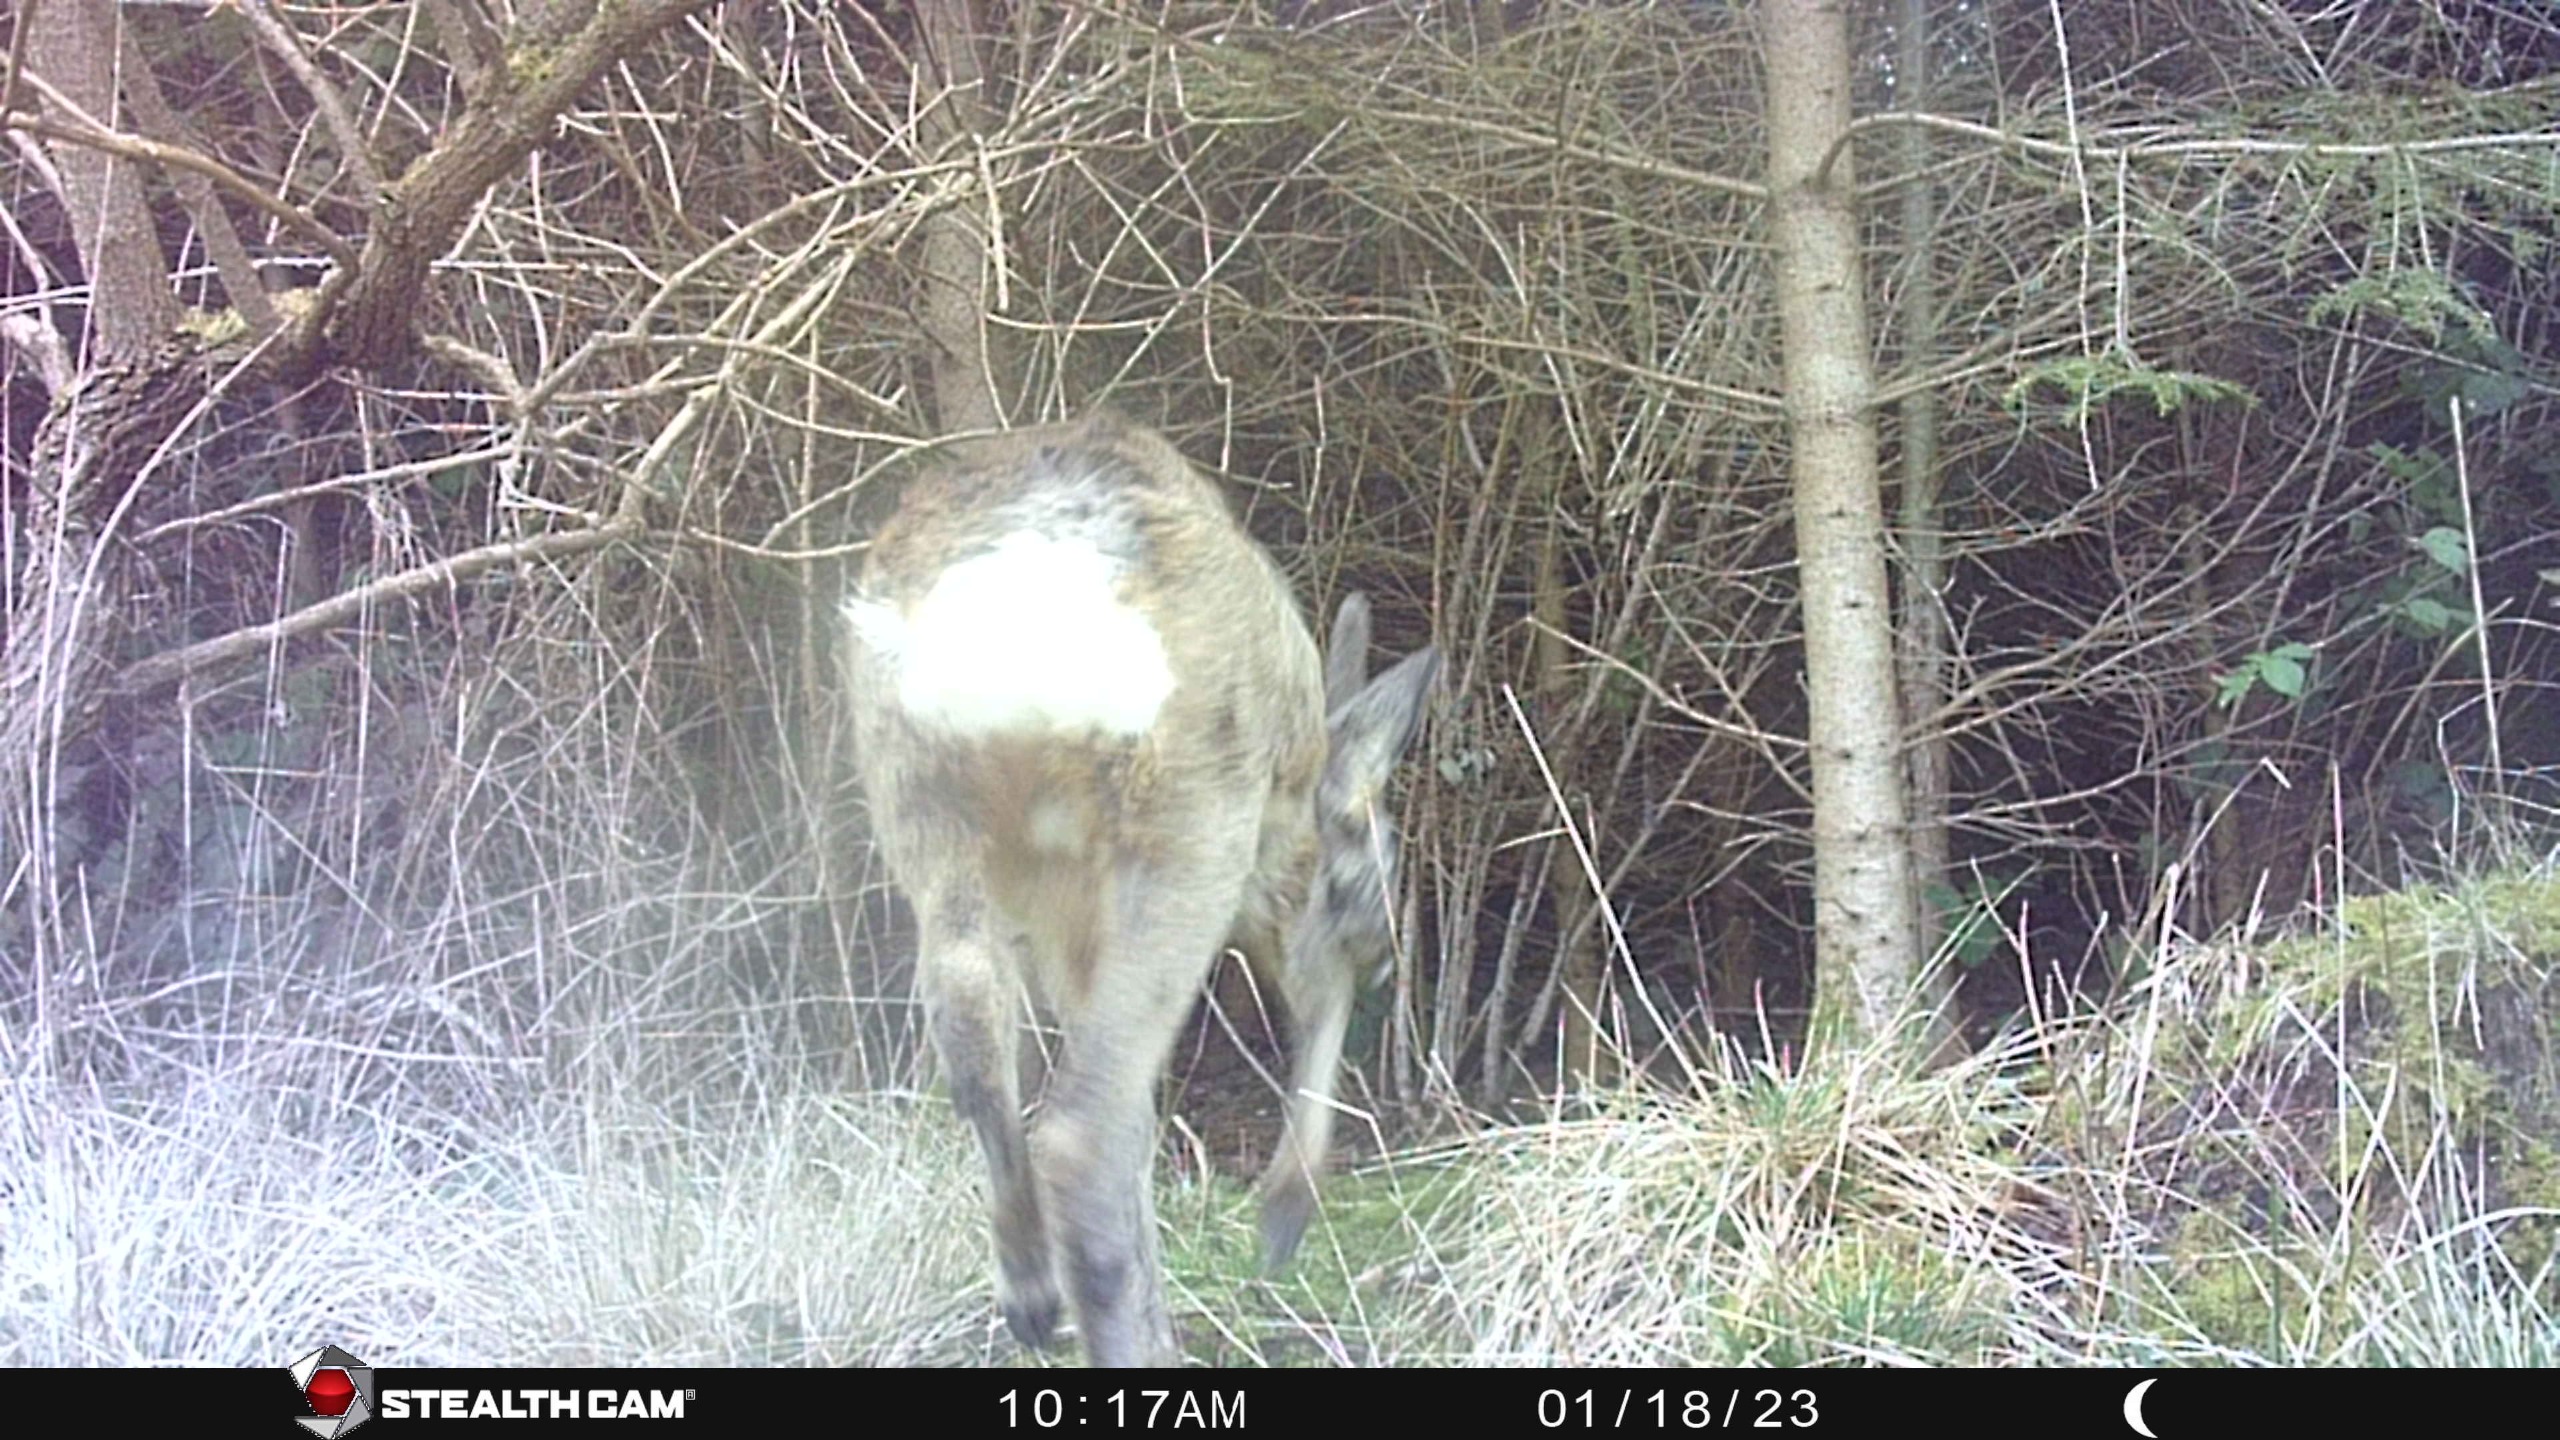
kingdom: Animalia
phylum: Chordata
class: Mammalia
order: Artiodactyla
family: Cervidae
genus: Capreolus
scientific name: Capreolus capreolus
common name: Rådyr
